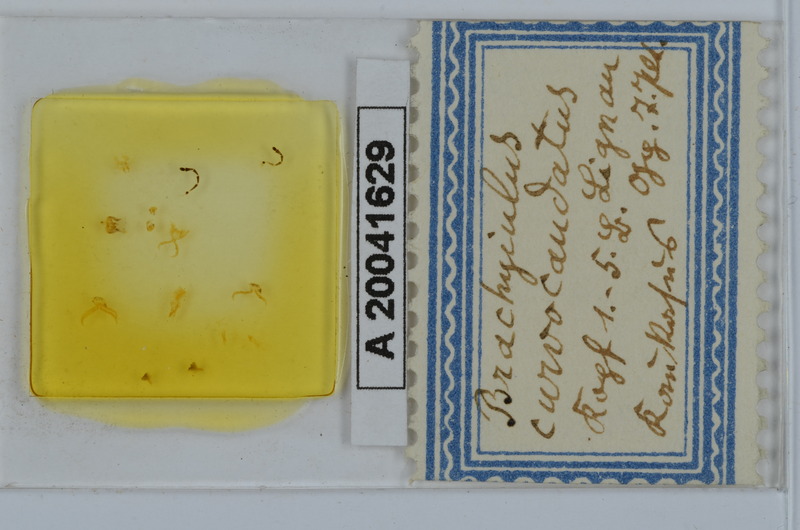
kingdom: Animalia
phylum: Arthropoda
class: Diplopoda
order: Julida
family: Julidae
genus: Brachyiulus
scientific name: Brachyiulus
